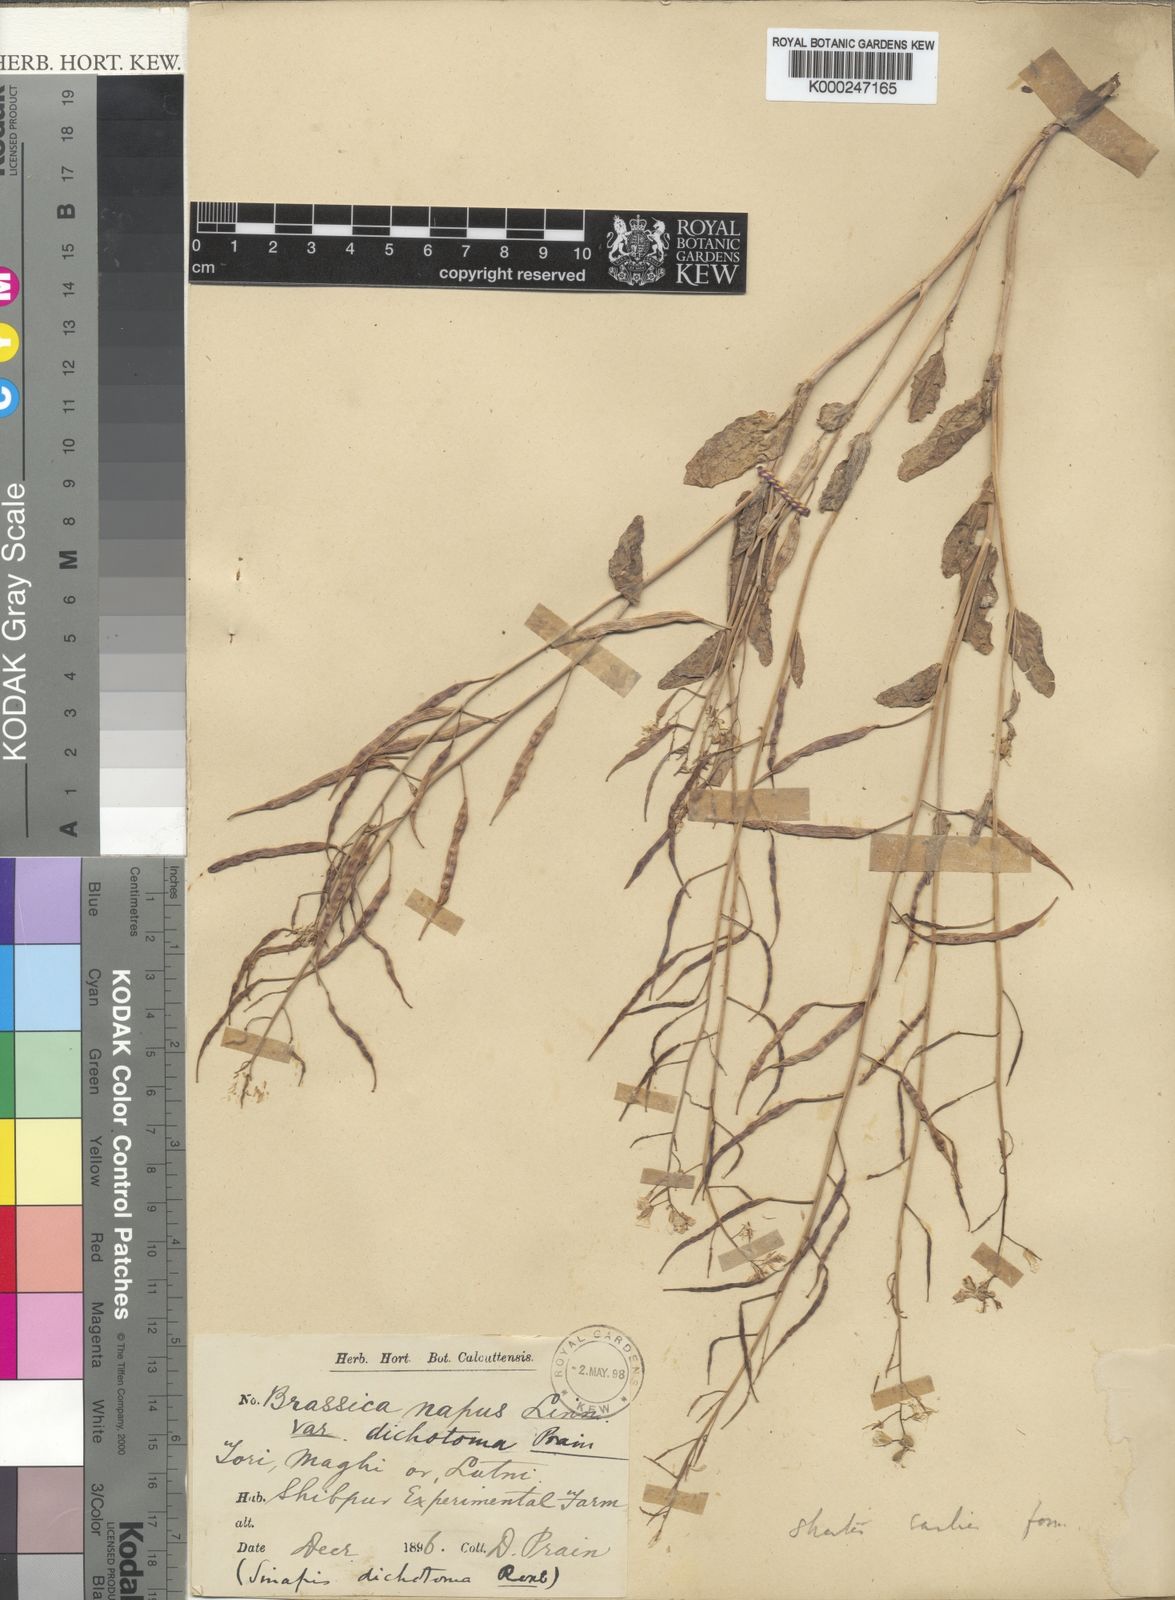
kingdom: Plantae
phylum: Tracheophyta
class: Magnoliopsida
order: Brassicales
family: Brassicaceae
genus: Brassica
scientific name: Brassica napus
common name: Rape
